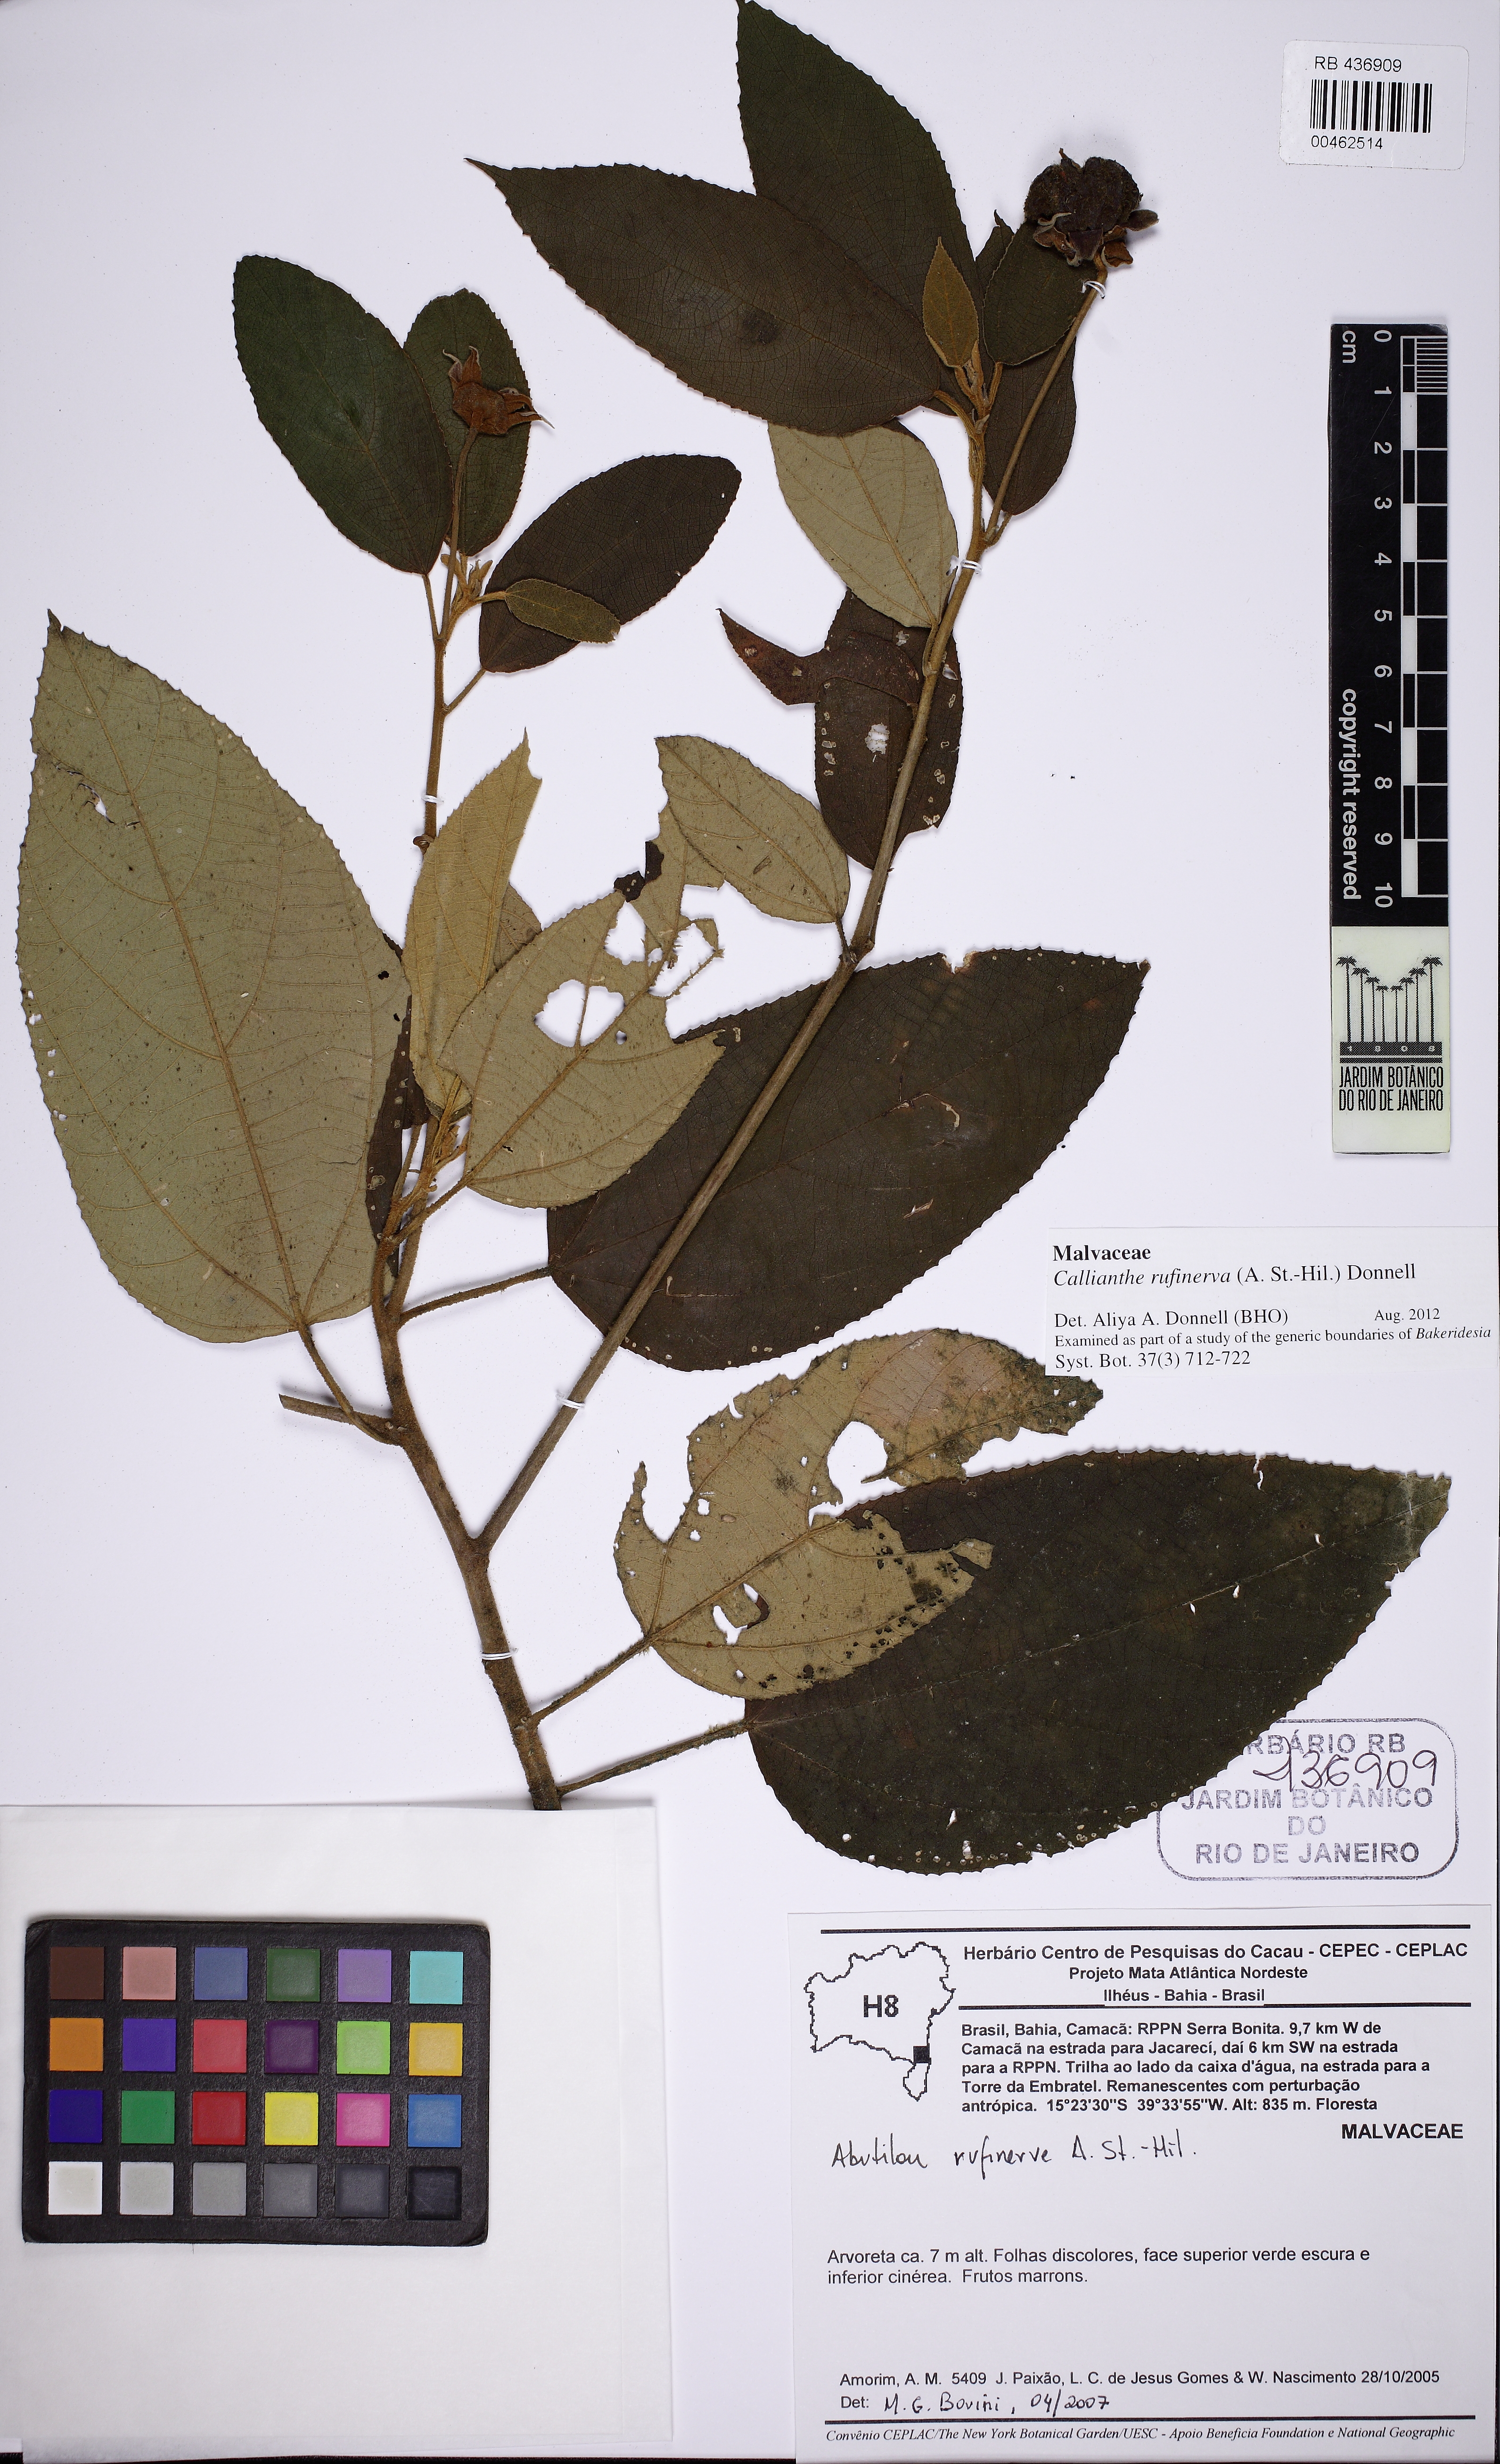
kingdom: Plantae
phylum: Tracheophyta
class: Magnoliopsida
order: Malvales
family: Malvaceae
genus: Callianthe
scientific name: Callianthe rufinerva
